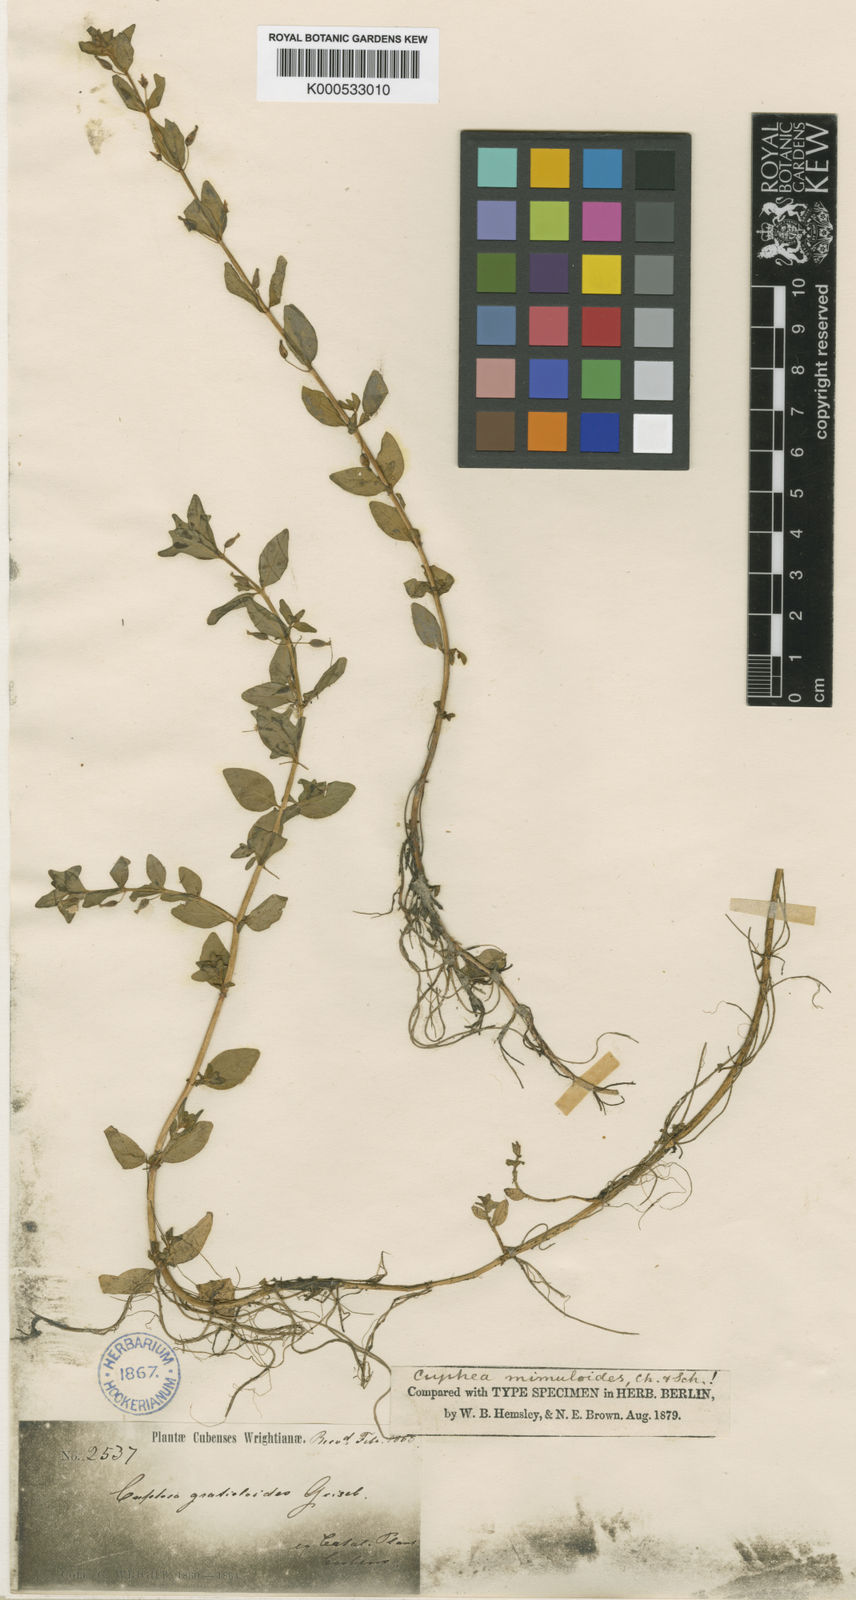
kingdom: Plantae
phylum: Tracheophyta
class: Magnoliopsida
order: Myrtales
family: Lythraceae
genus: Cuphea
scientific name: Cuphea mimuloides
